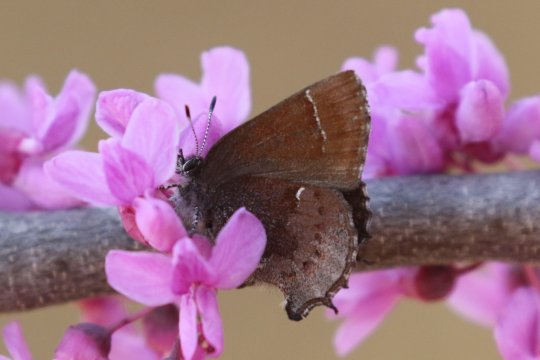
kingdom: Animalia
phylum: Arthropoda
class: Insecta
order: Lepidoptera
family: Lycaenidae
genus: Incisalia
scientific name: Incisalia henrici
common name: Henry's Elfin
